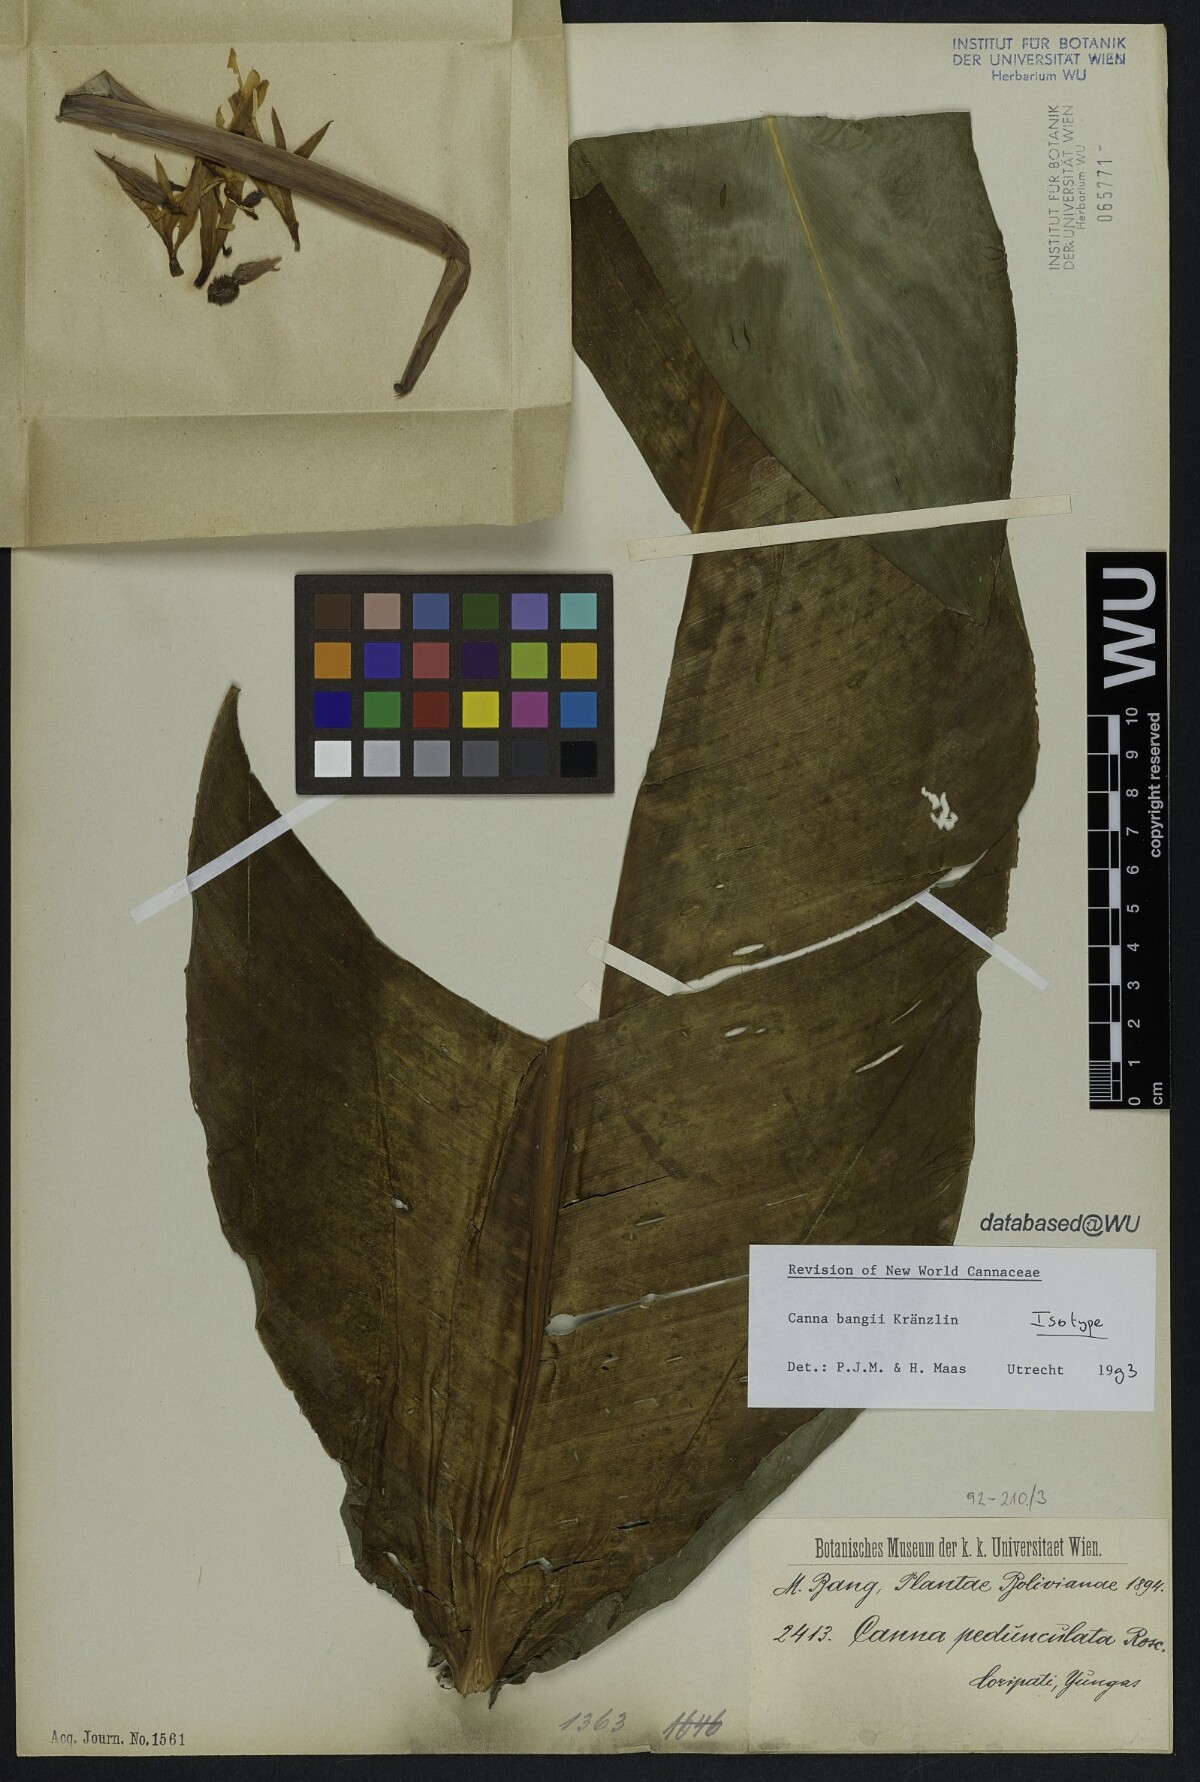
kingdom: Plantae
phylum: Tracheophyta
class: Liliopsida
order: Zingiberales
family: Cannaceae
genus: Canna
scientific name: Canna bangii
